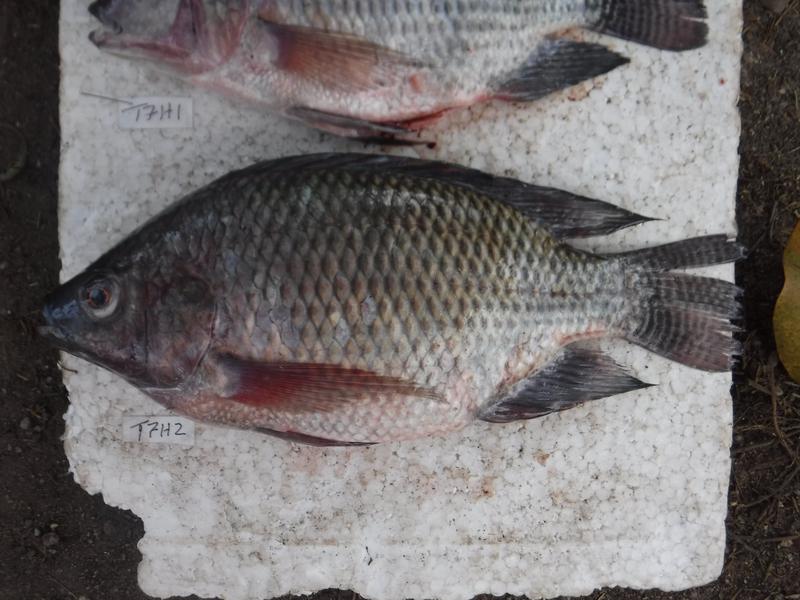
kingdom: Animalia
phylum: Chordata
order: Perciformes
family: Cichlidae
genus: Oreochromis
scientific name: Oreochromis niloticus
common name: Nile tilapia
